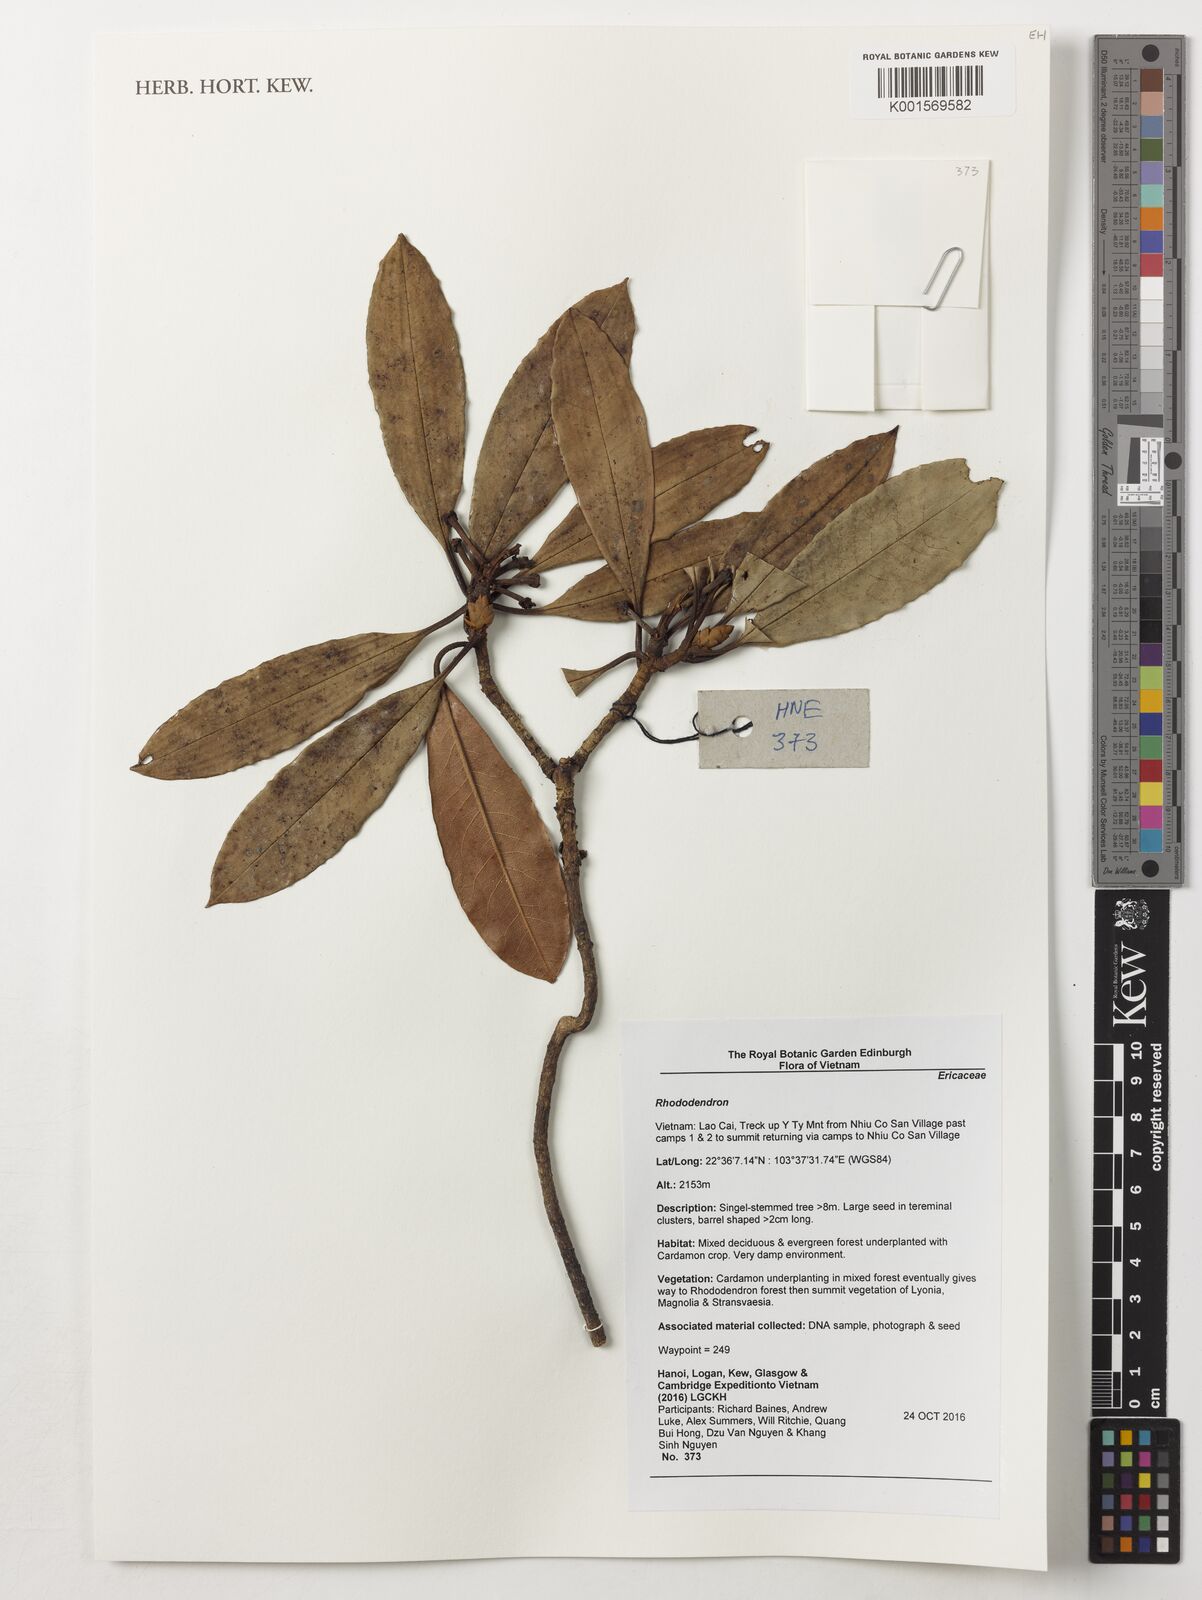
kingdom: Plantae
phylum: Tracheophyta
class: Magnoliopsida
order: Ericales
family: Ericaceae
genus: Rhododendron
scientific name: Rhododendron
